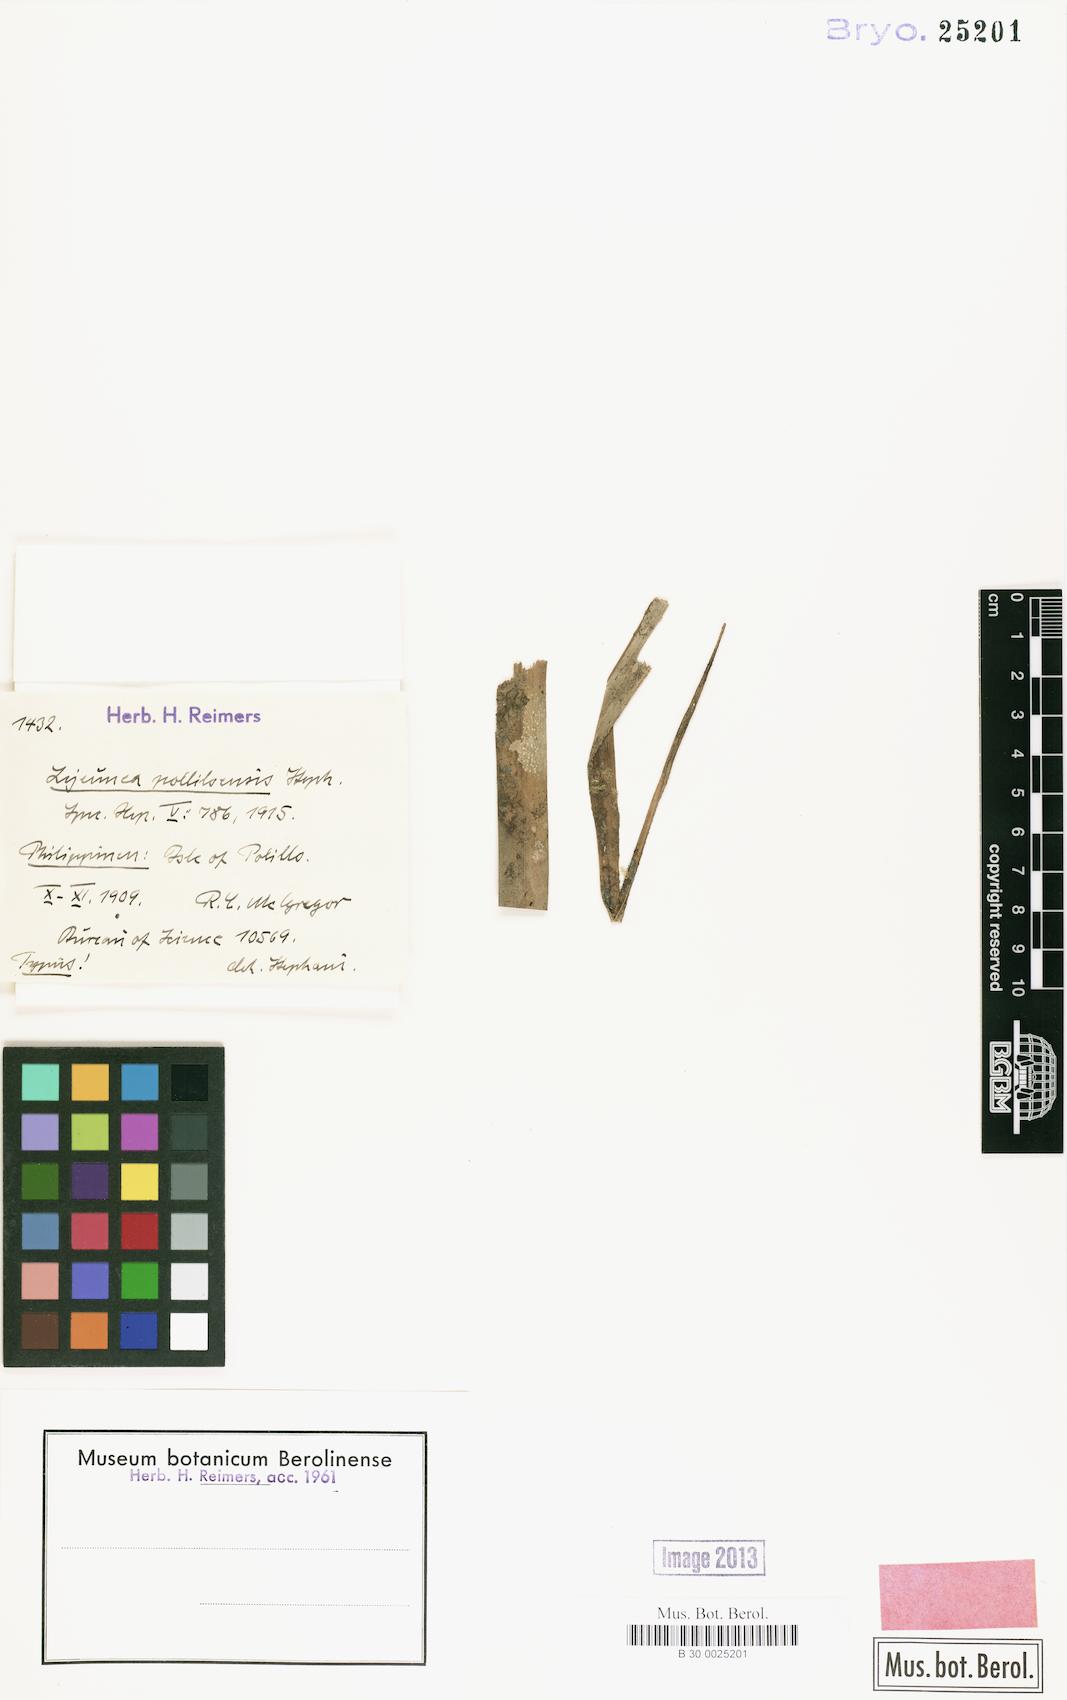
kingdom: Plantae
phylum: Marchantiophyta
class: Jungermanniopsida
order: Porellales
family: Lejeuneaceae
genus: Lejeunea
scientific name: Lejeunea polilloensis
